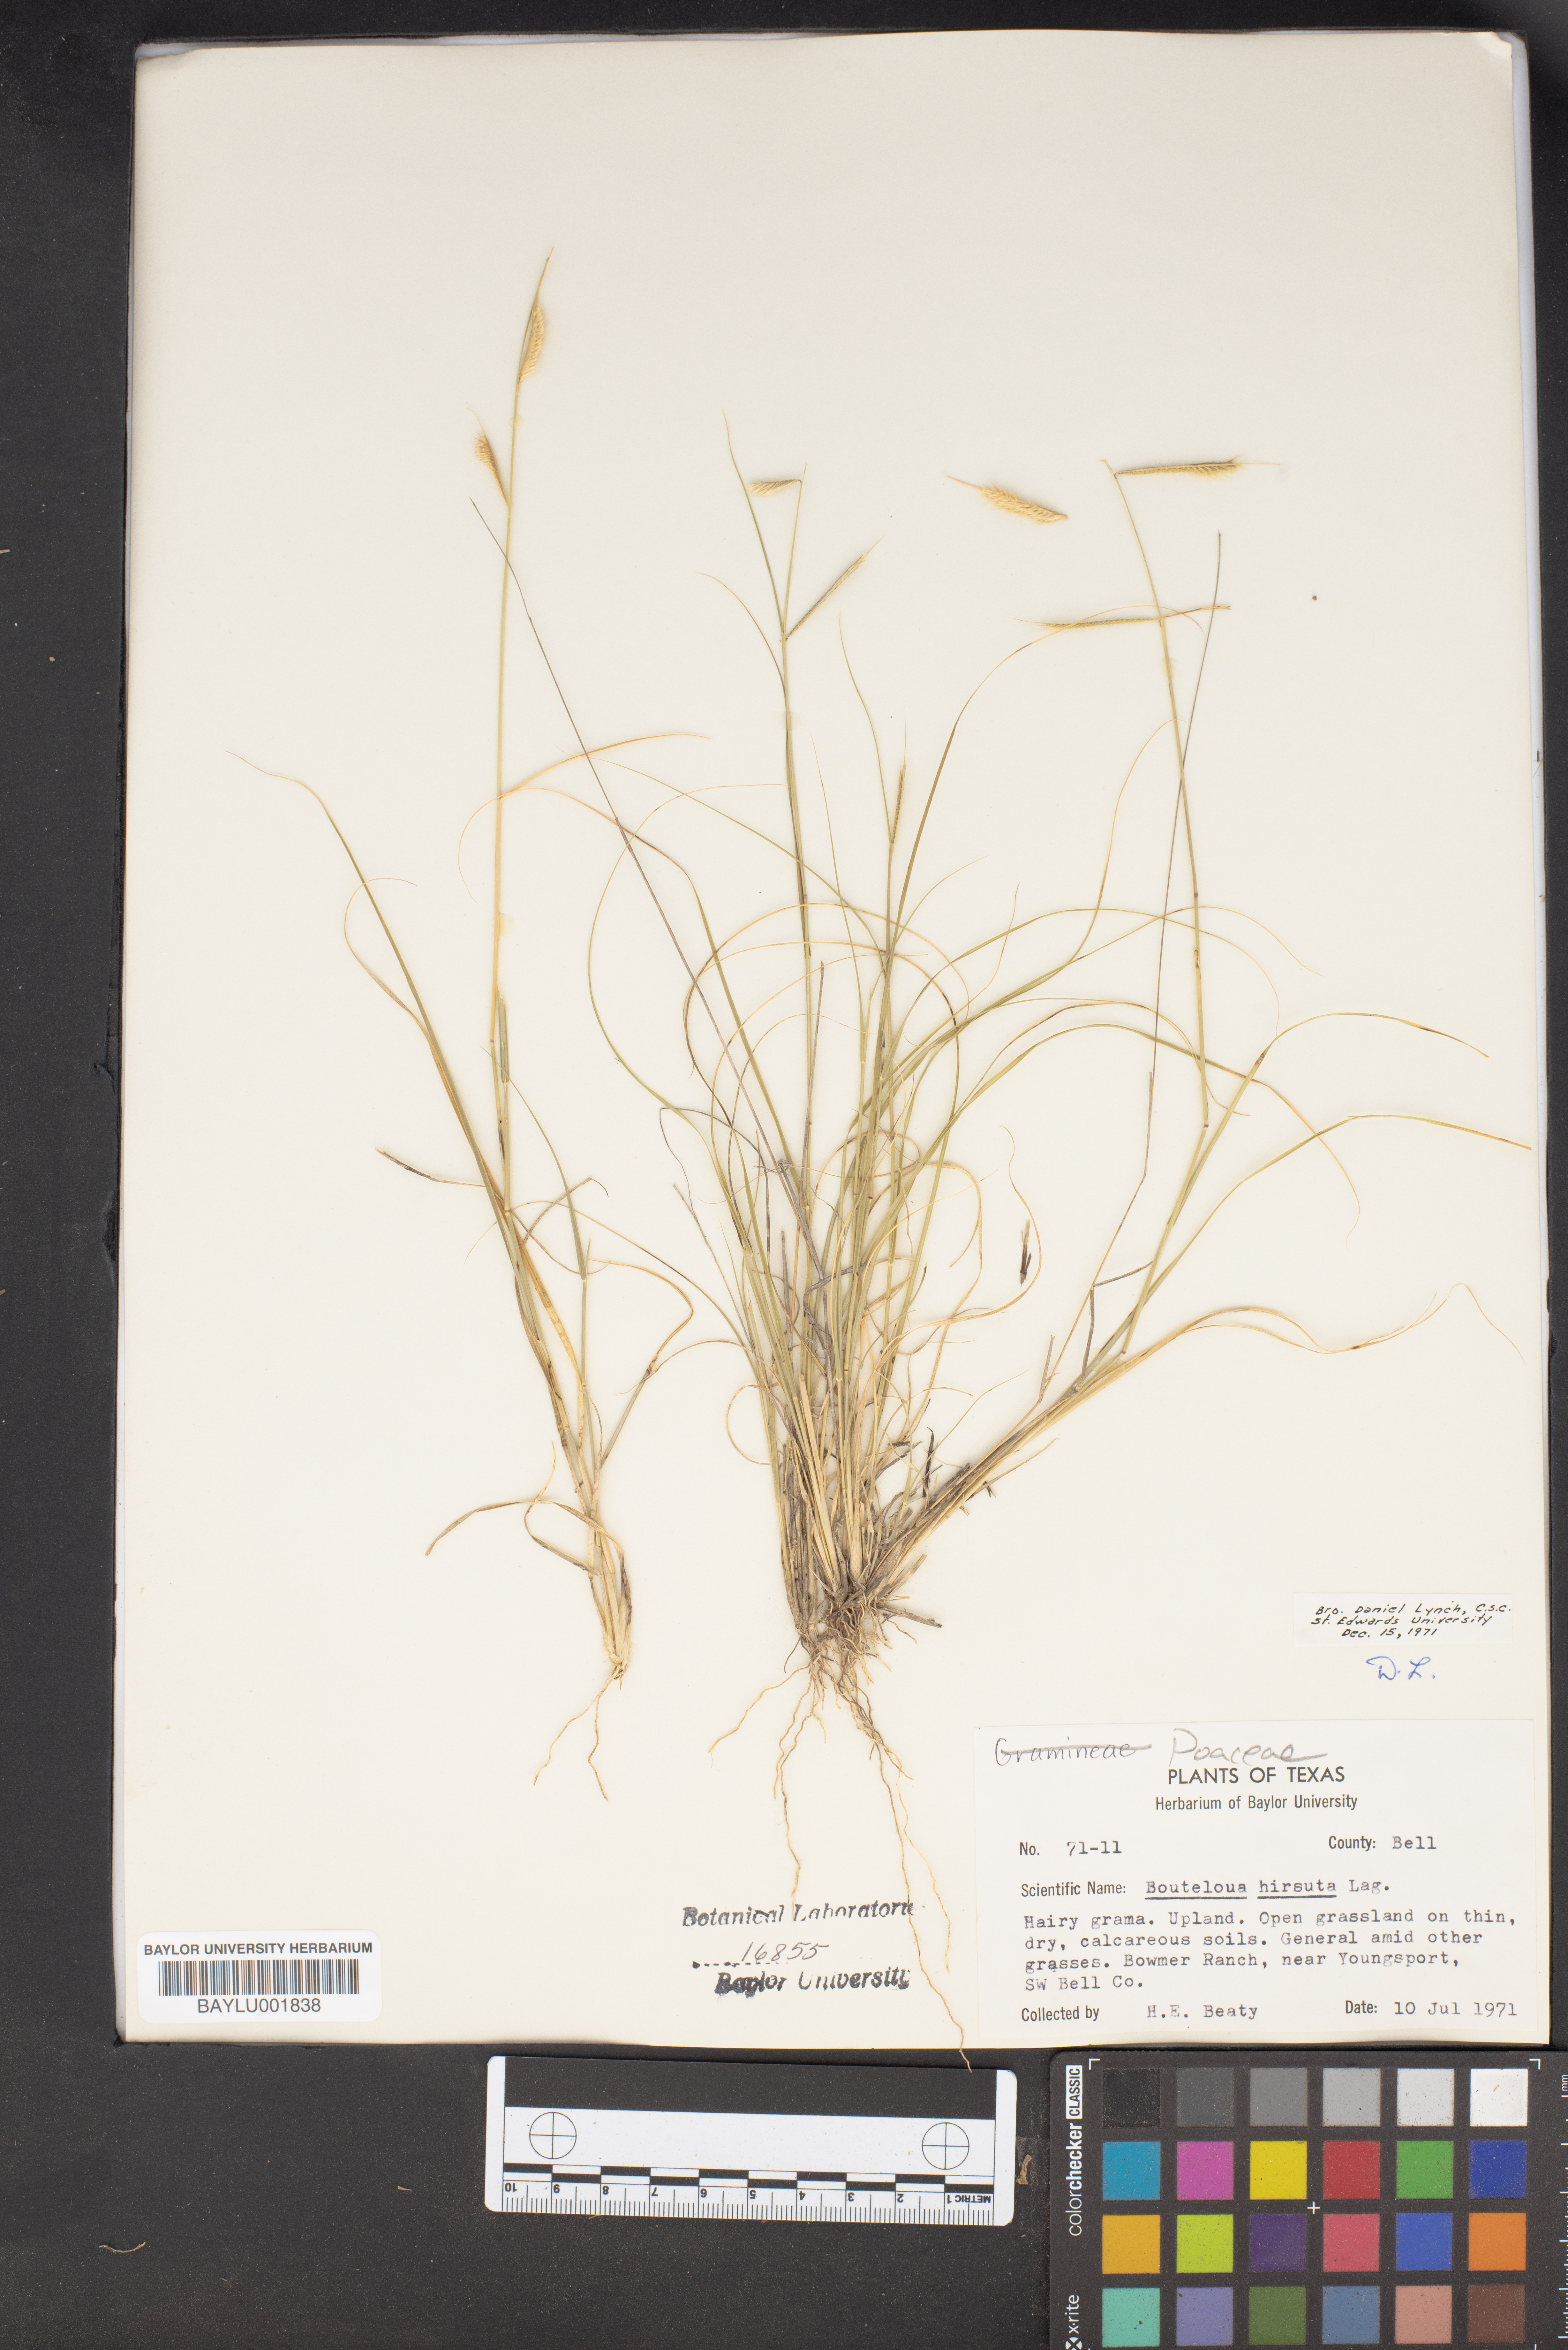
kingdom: Plantae
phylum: Tracheophyta
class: Liliopsida
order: Poales
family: Poaceae
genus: Bouteloua
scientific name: Bouteloua hirsuta
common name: Hairy grama
